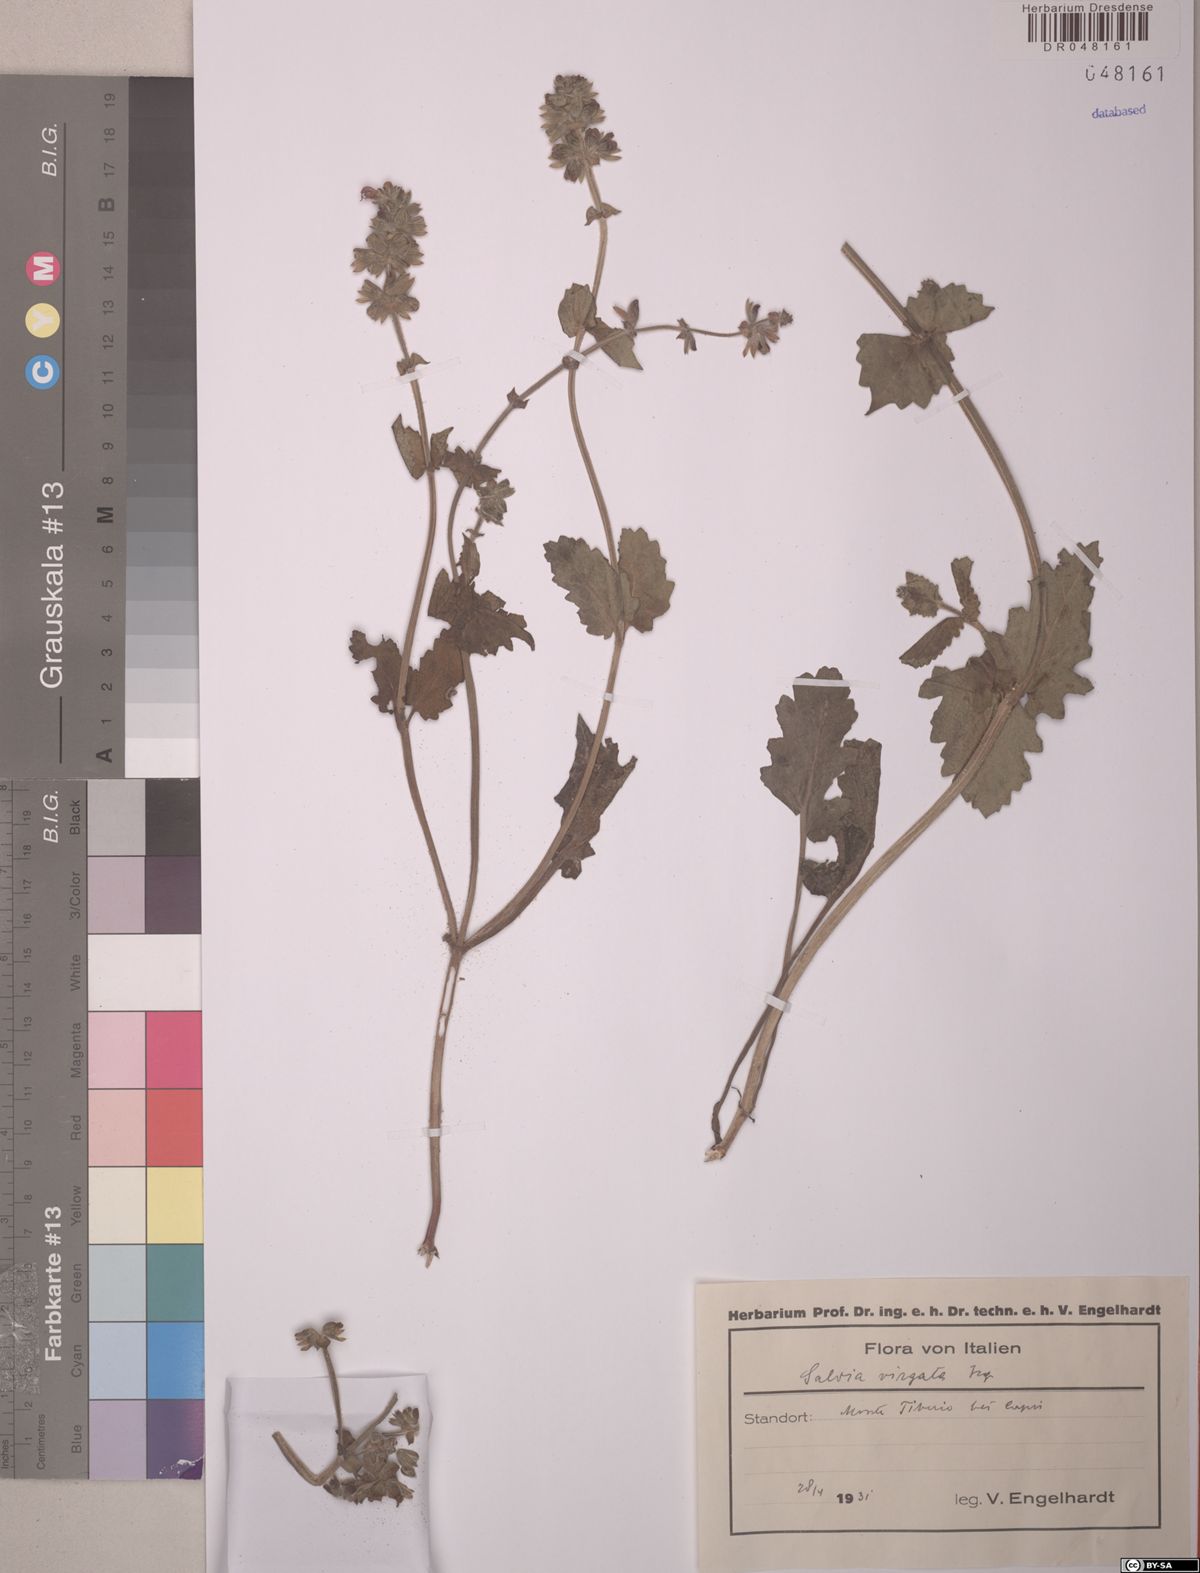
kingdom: Plantae
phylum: Tracheophyta
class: Magnoliopsida
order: Lamiales
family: Lamiaceae
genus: Salvia
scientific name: Salvia virgata
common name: Wand sage
